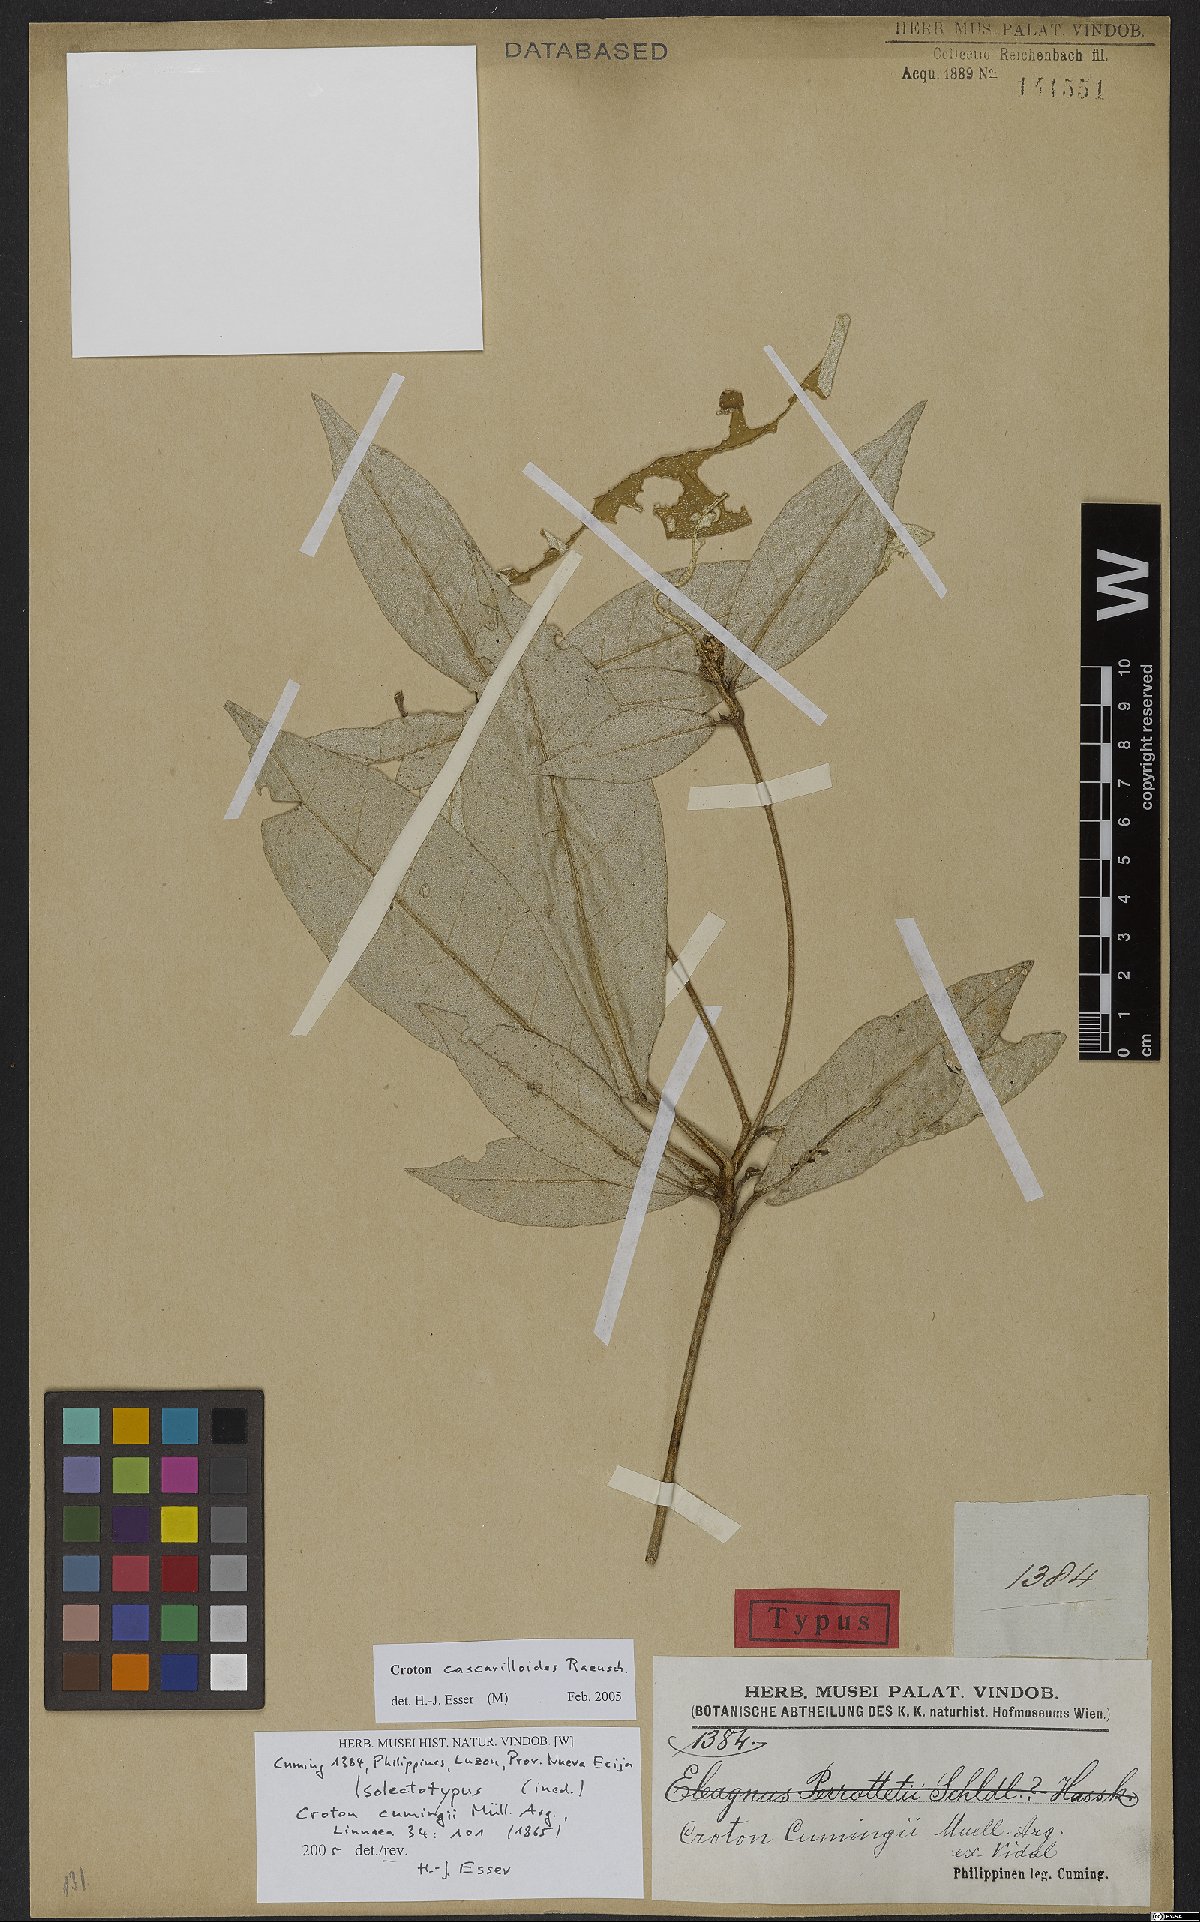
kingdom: Plantae
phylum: Tracheophyta
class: Magnoliopsida
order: Malpighiales
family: Euphorbiaceae
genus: Croton
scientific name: Croton cascarilloides
